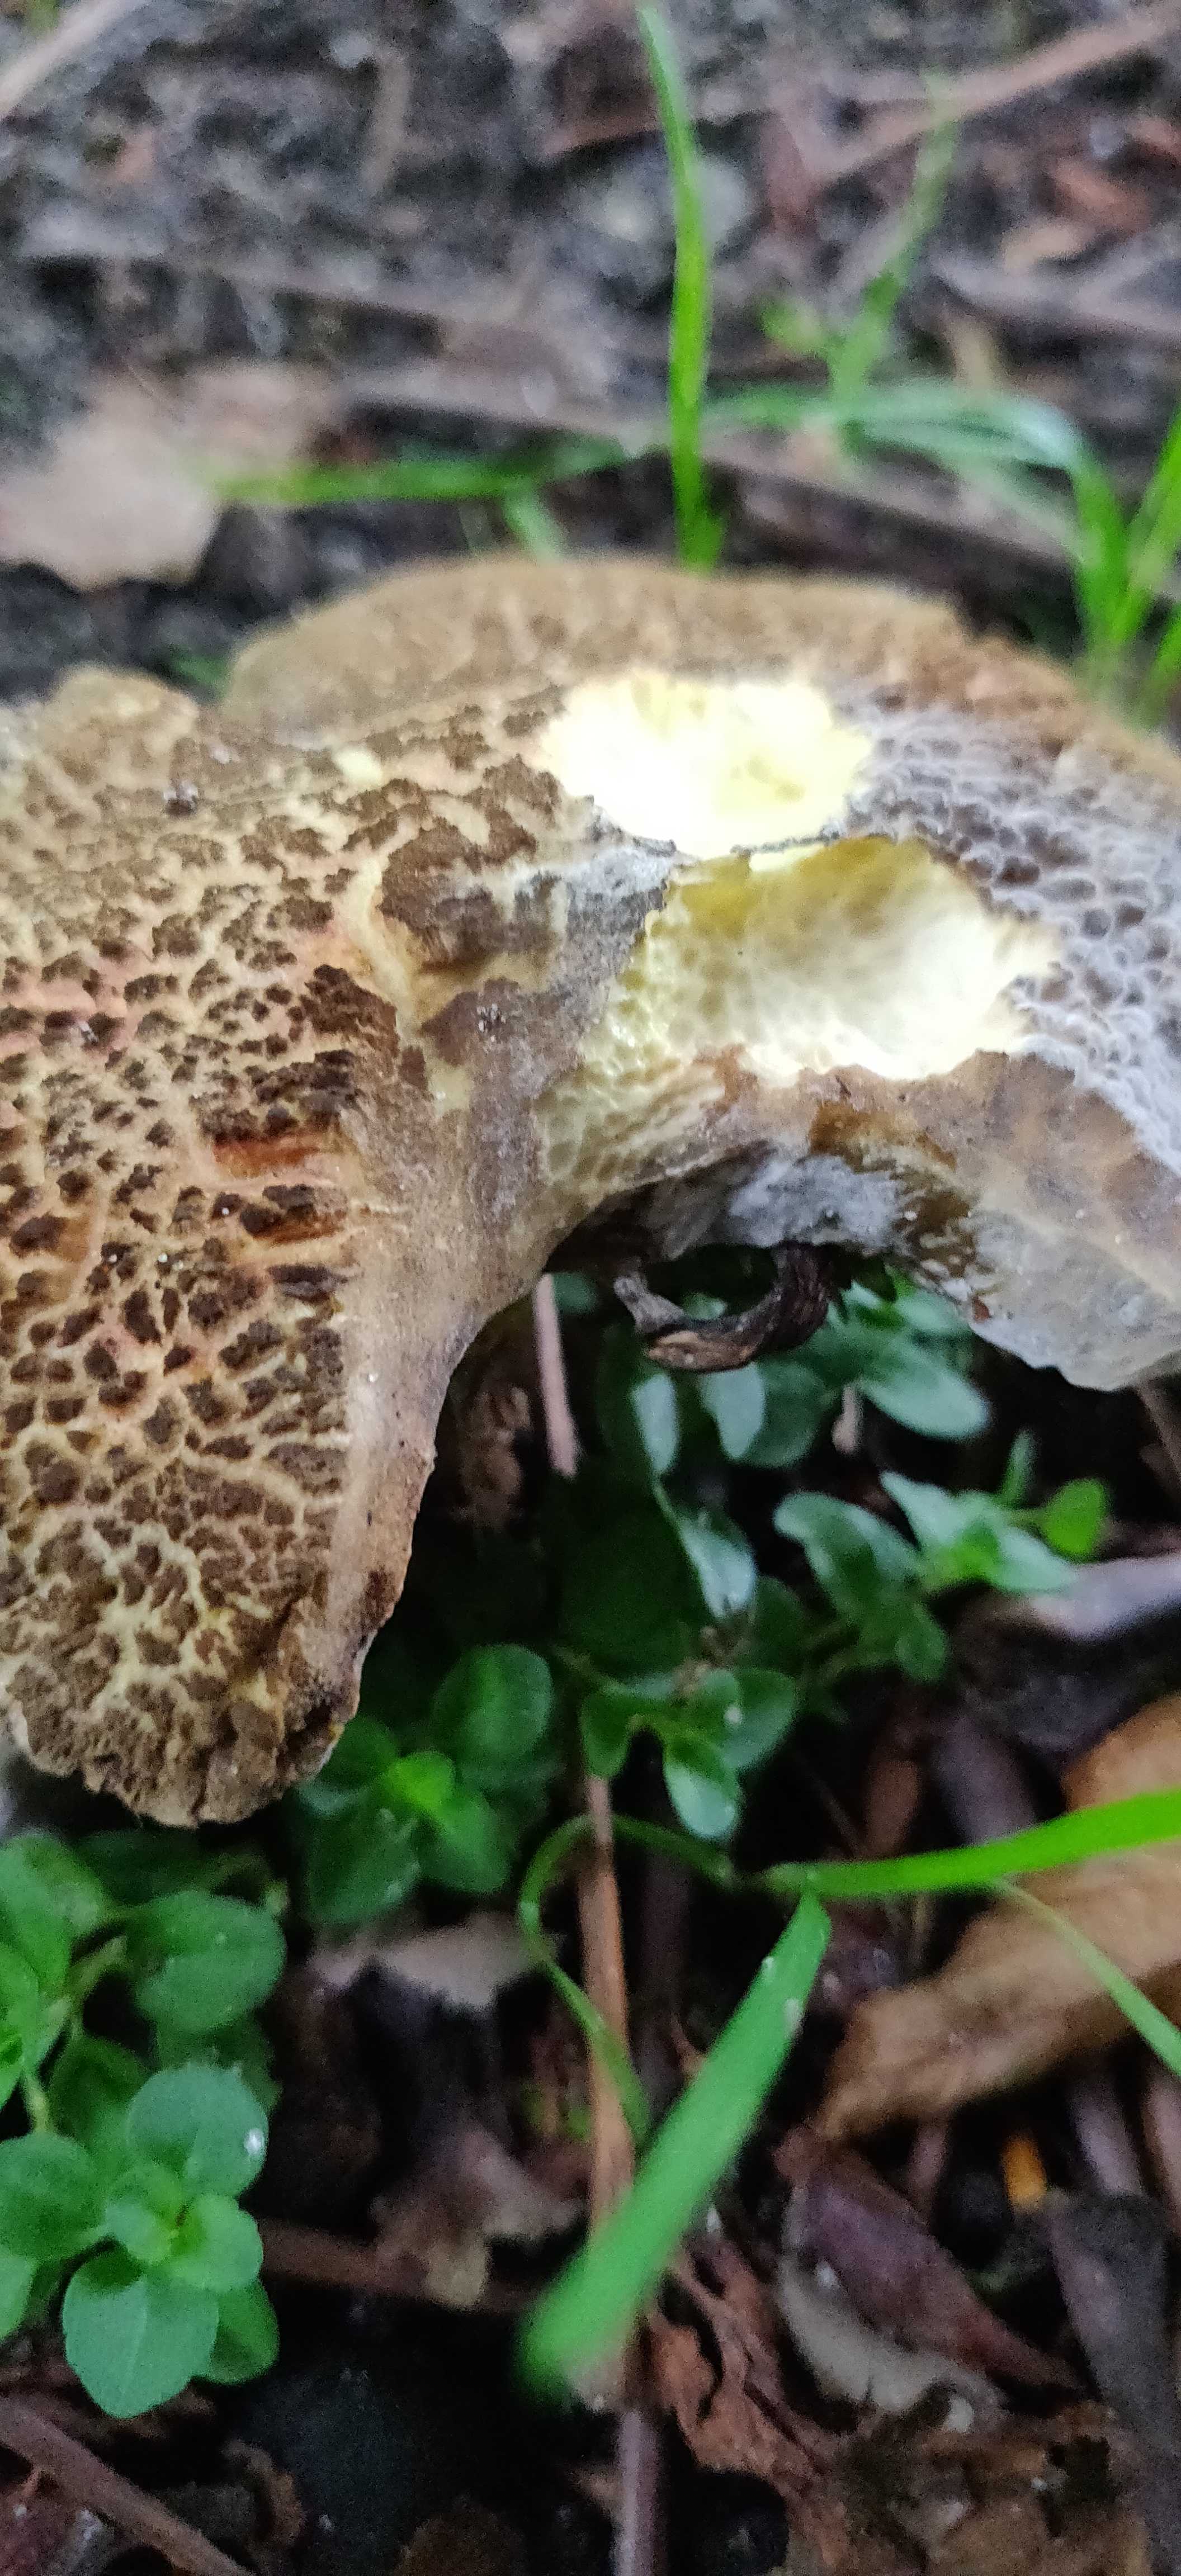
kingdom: Fungi
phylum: Ascomycota
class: Sordariomycetes
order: Hypocreales
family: Hypocreaceae
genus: Hypomyces
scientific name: Hypomyces microspermus
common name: dværgrørhat-snylteskorpe
